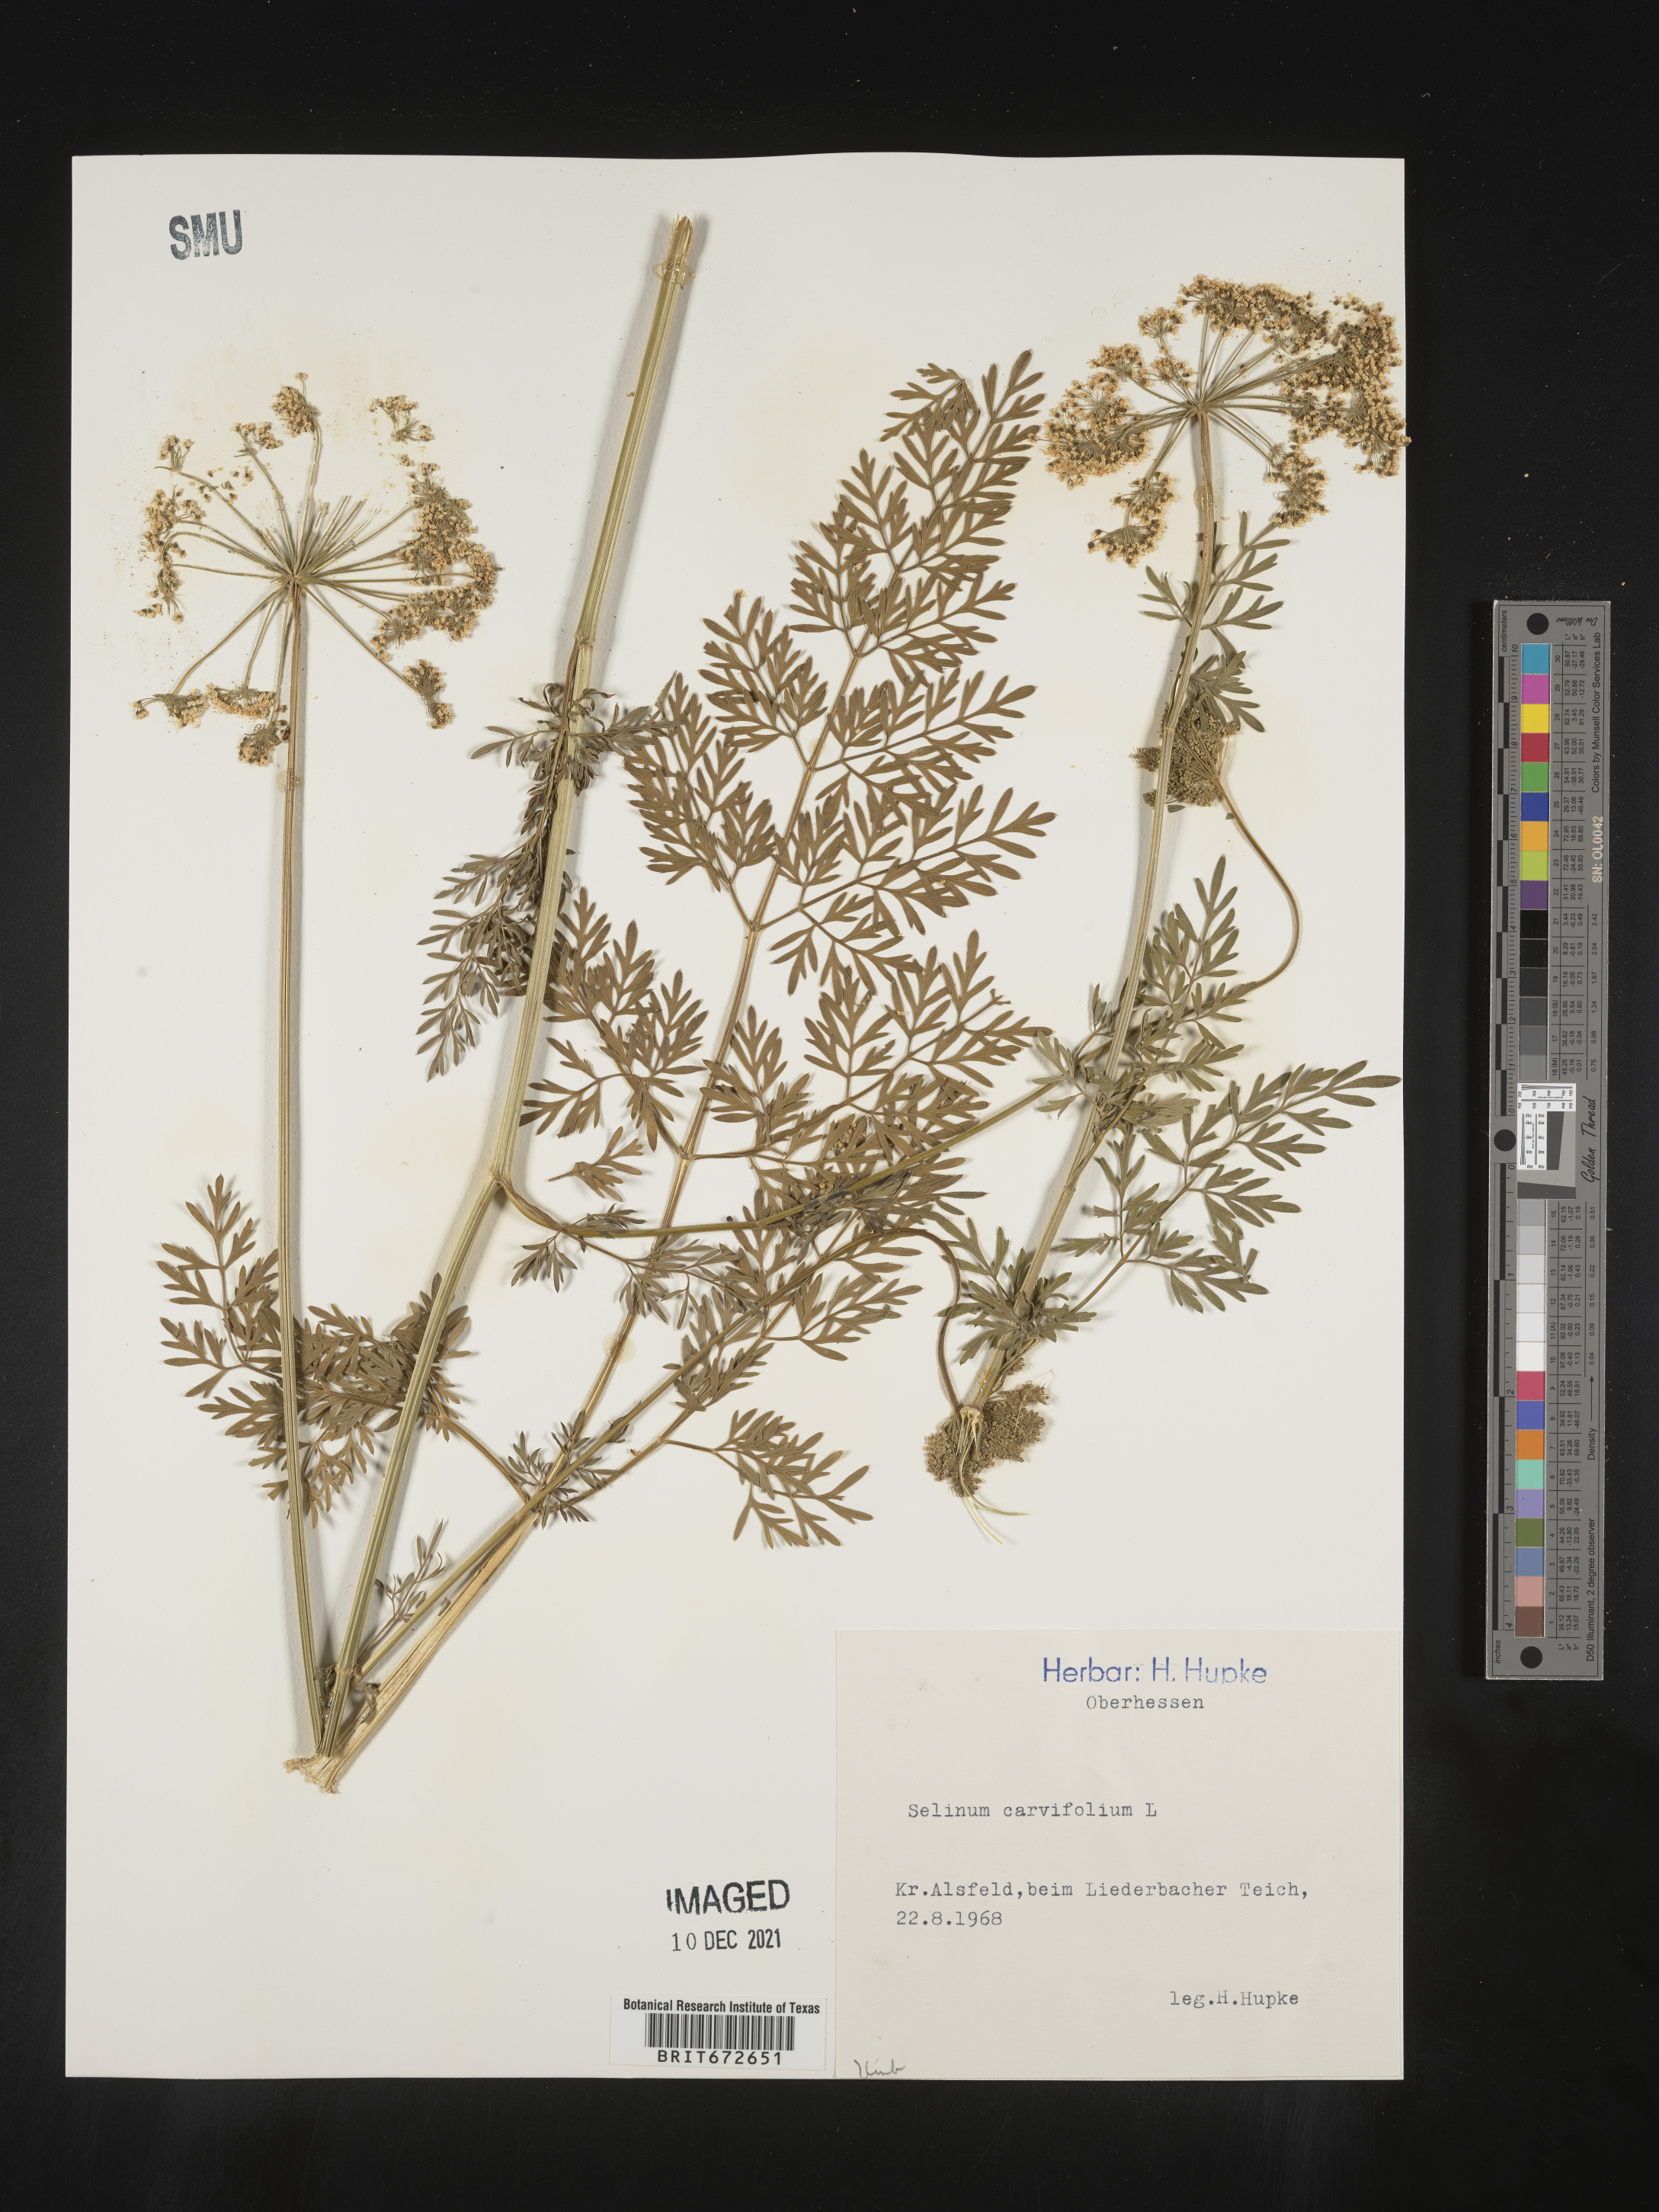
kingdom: Plantae
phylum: Tracheophyta
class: Magnoliopsida
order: Apiales
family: Apiaceae
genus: Selinum
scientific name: Selinum
